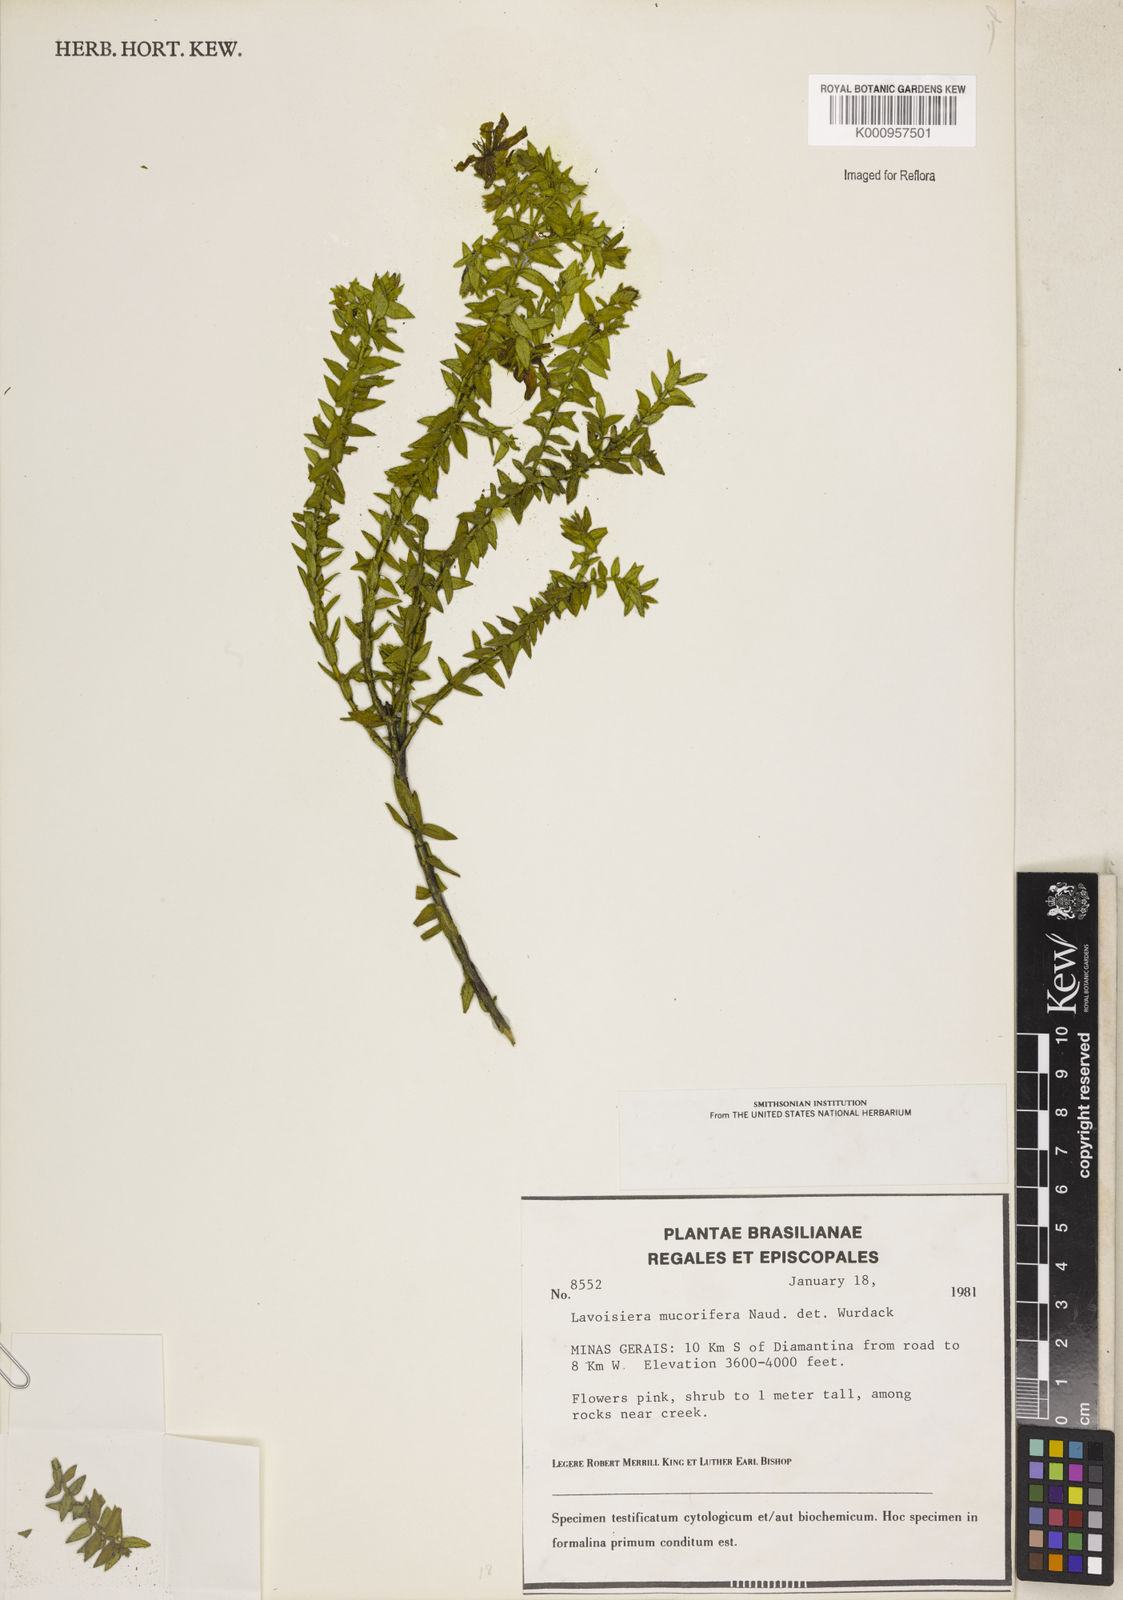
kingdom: Plantae
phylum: Tracheophyta
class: Magnoliopsida
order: Myrtales
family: Melastomataceae
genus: Microlicia
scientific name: Microlicia mucorifera
